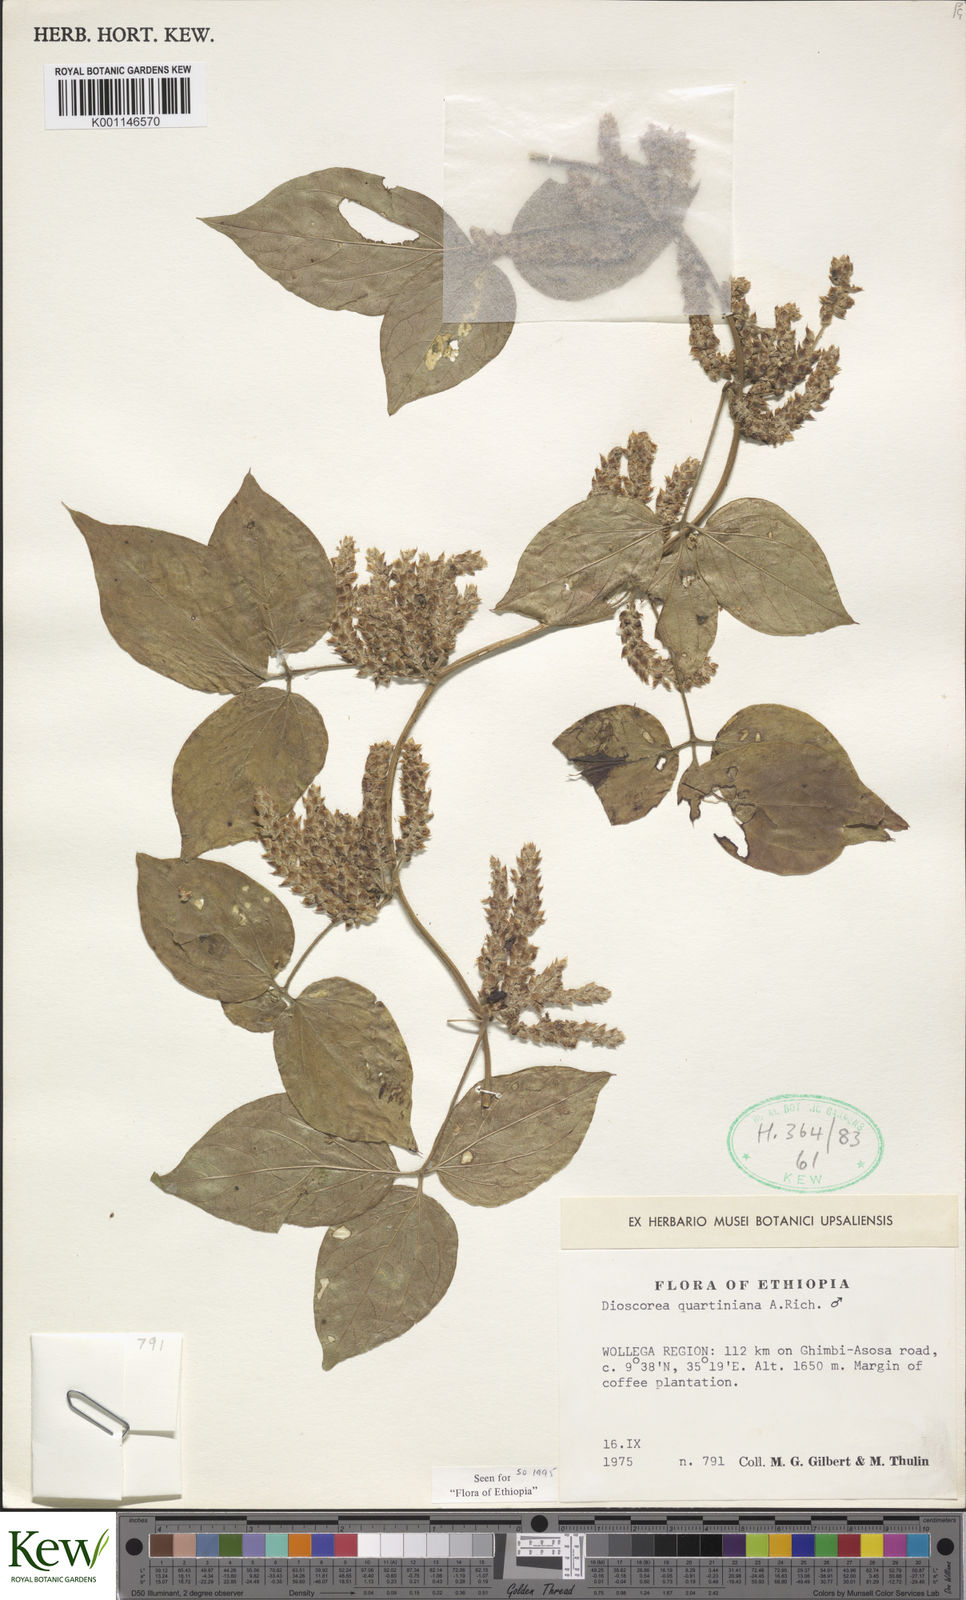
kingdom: Plantae
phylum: Tracheophyta
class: Liliopsida
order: Dioscoreales
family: Dioscoreaceae
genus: Dioscorea
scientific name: Dioscorea quartiniana
